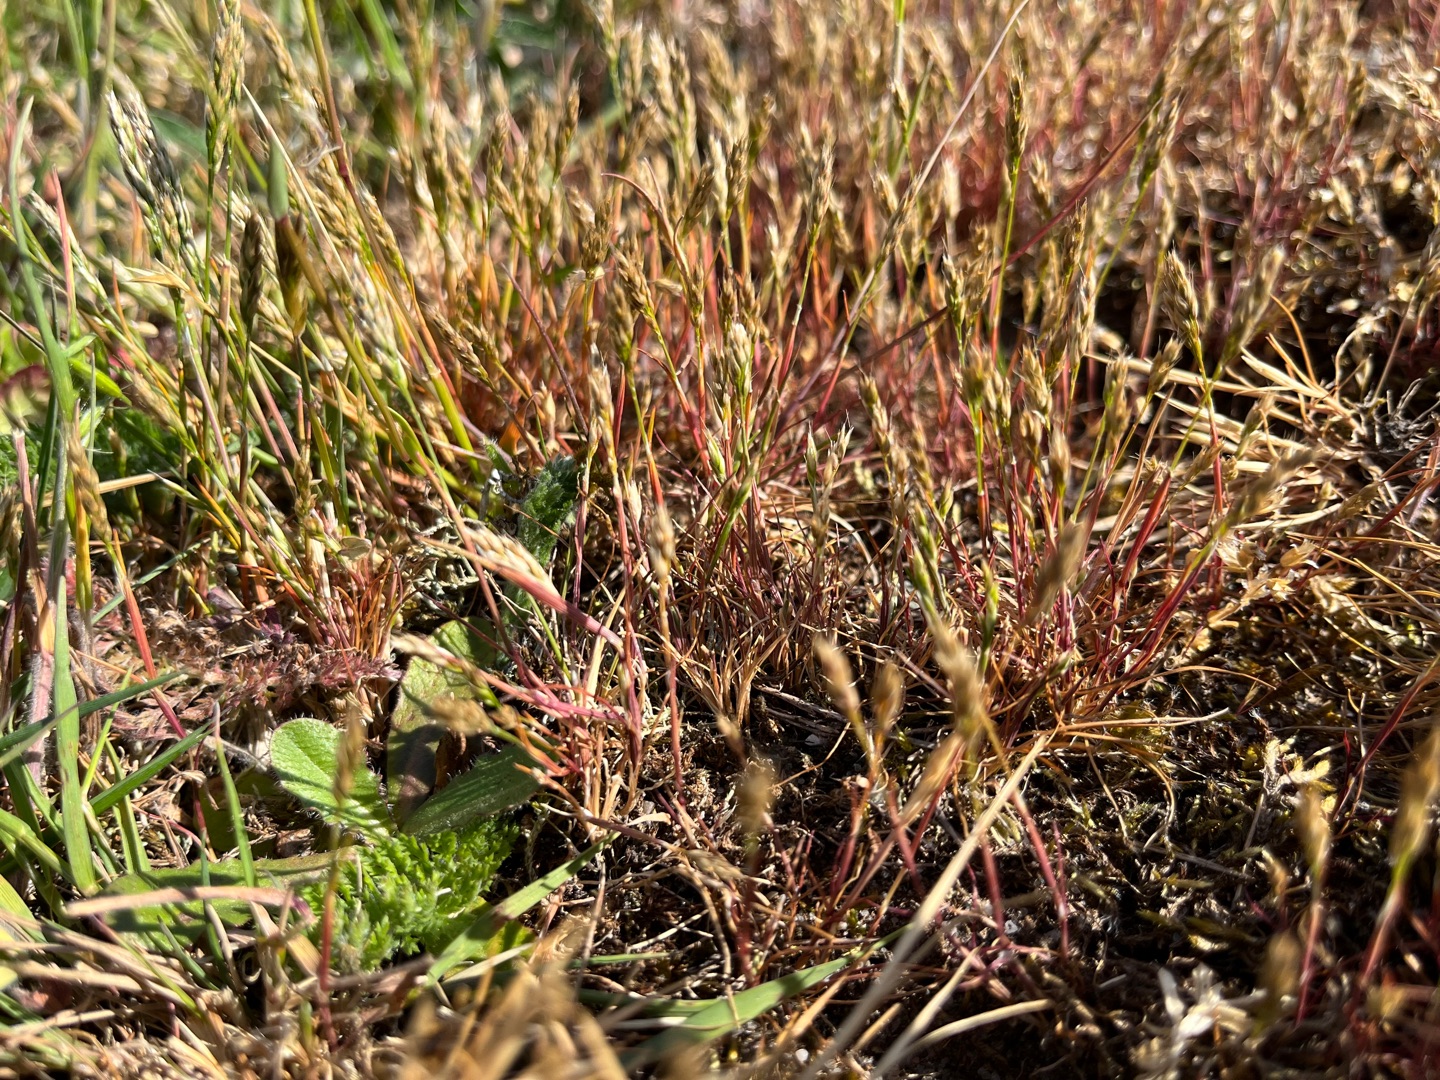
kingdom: Plantae
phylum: Tracheophyta
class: Liliopsida
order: Poales
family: Poaceae
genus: Aira
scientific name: Aira praecox
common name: Tidlig dværgbunke
